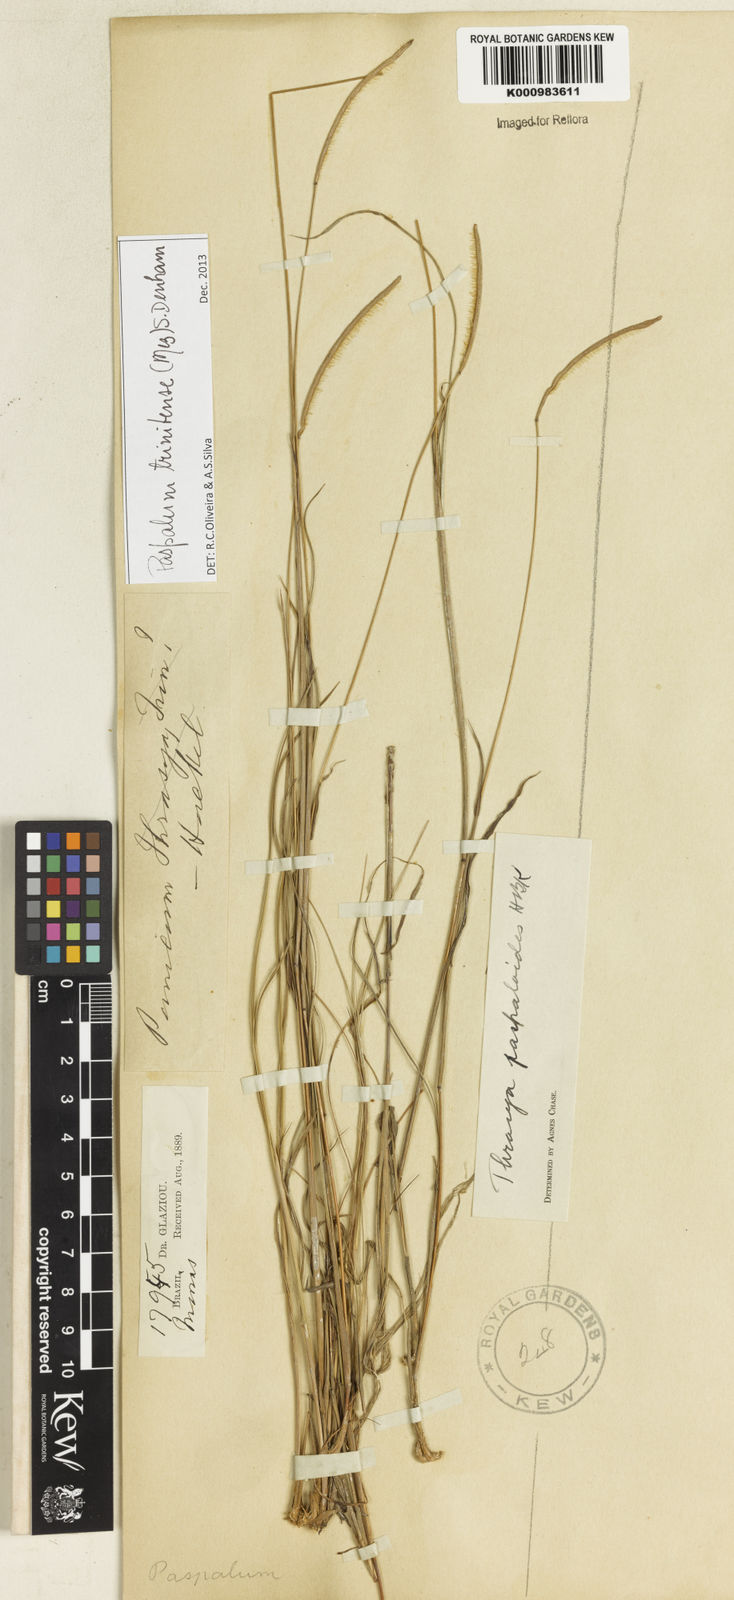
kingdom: Plantae
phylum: Tracheophyta
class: Liliopsida
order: Poales
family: Poaceae
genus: Paspalum
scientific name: Paspalum trinitense
